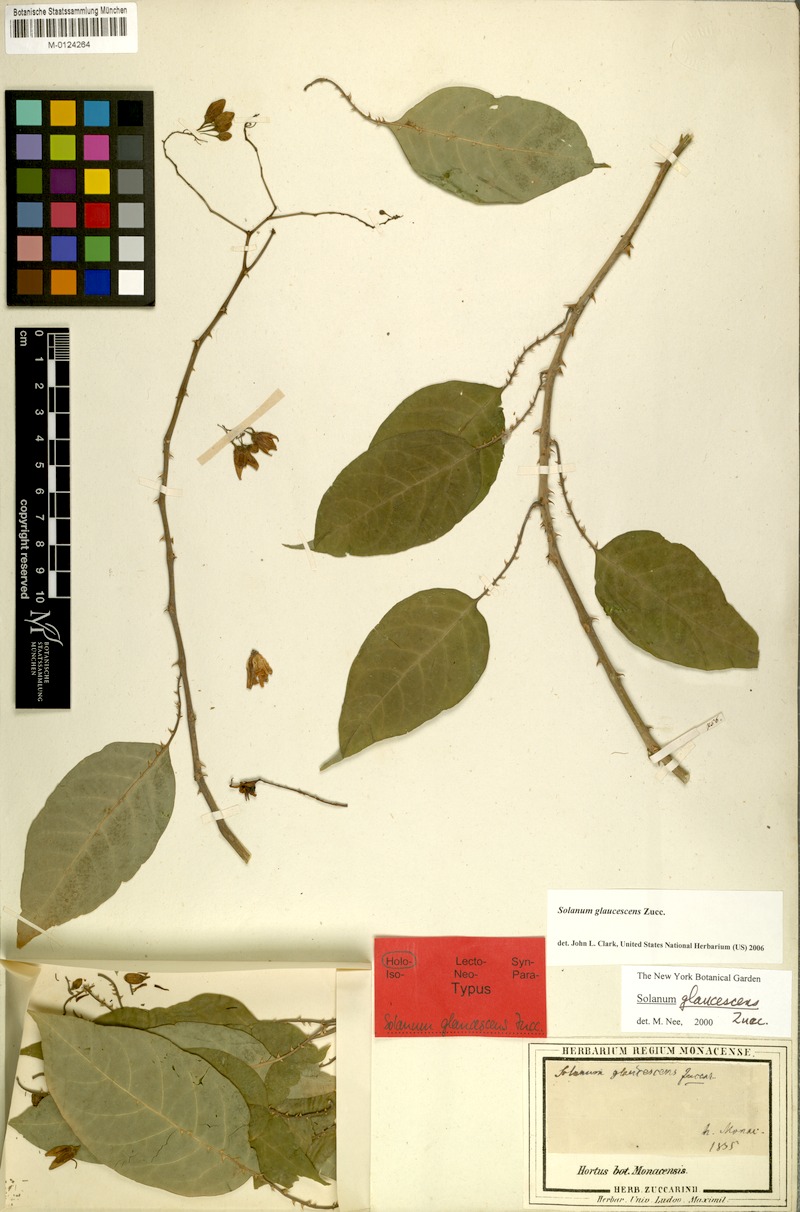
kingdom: Plantae
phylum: Tracheophyta
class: Magnoliopsida
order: Solanales
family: Solanaceae
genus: Solanum
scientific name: Solanum glaucescens
